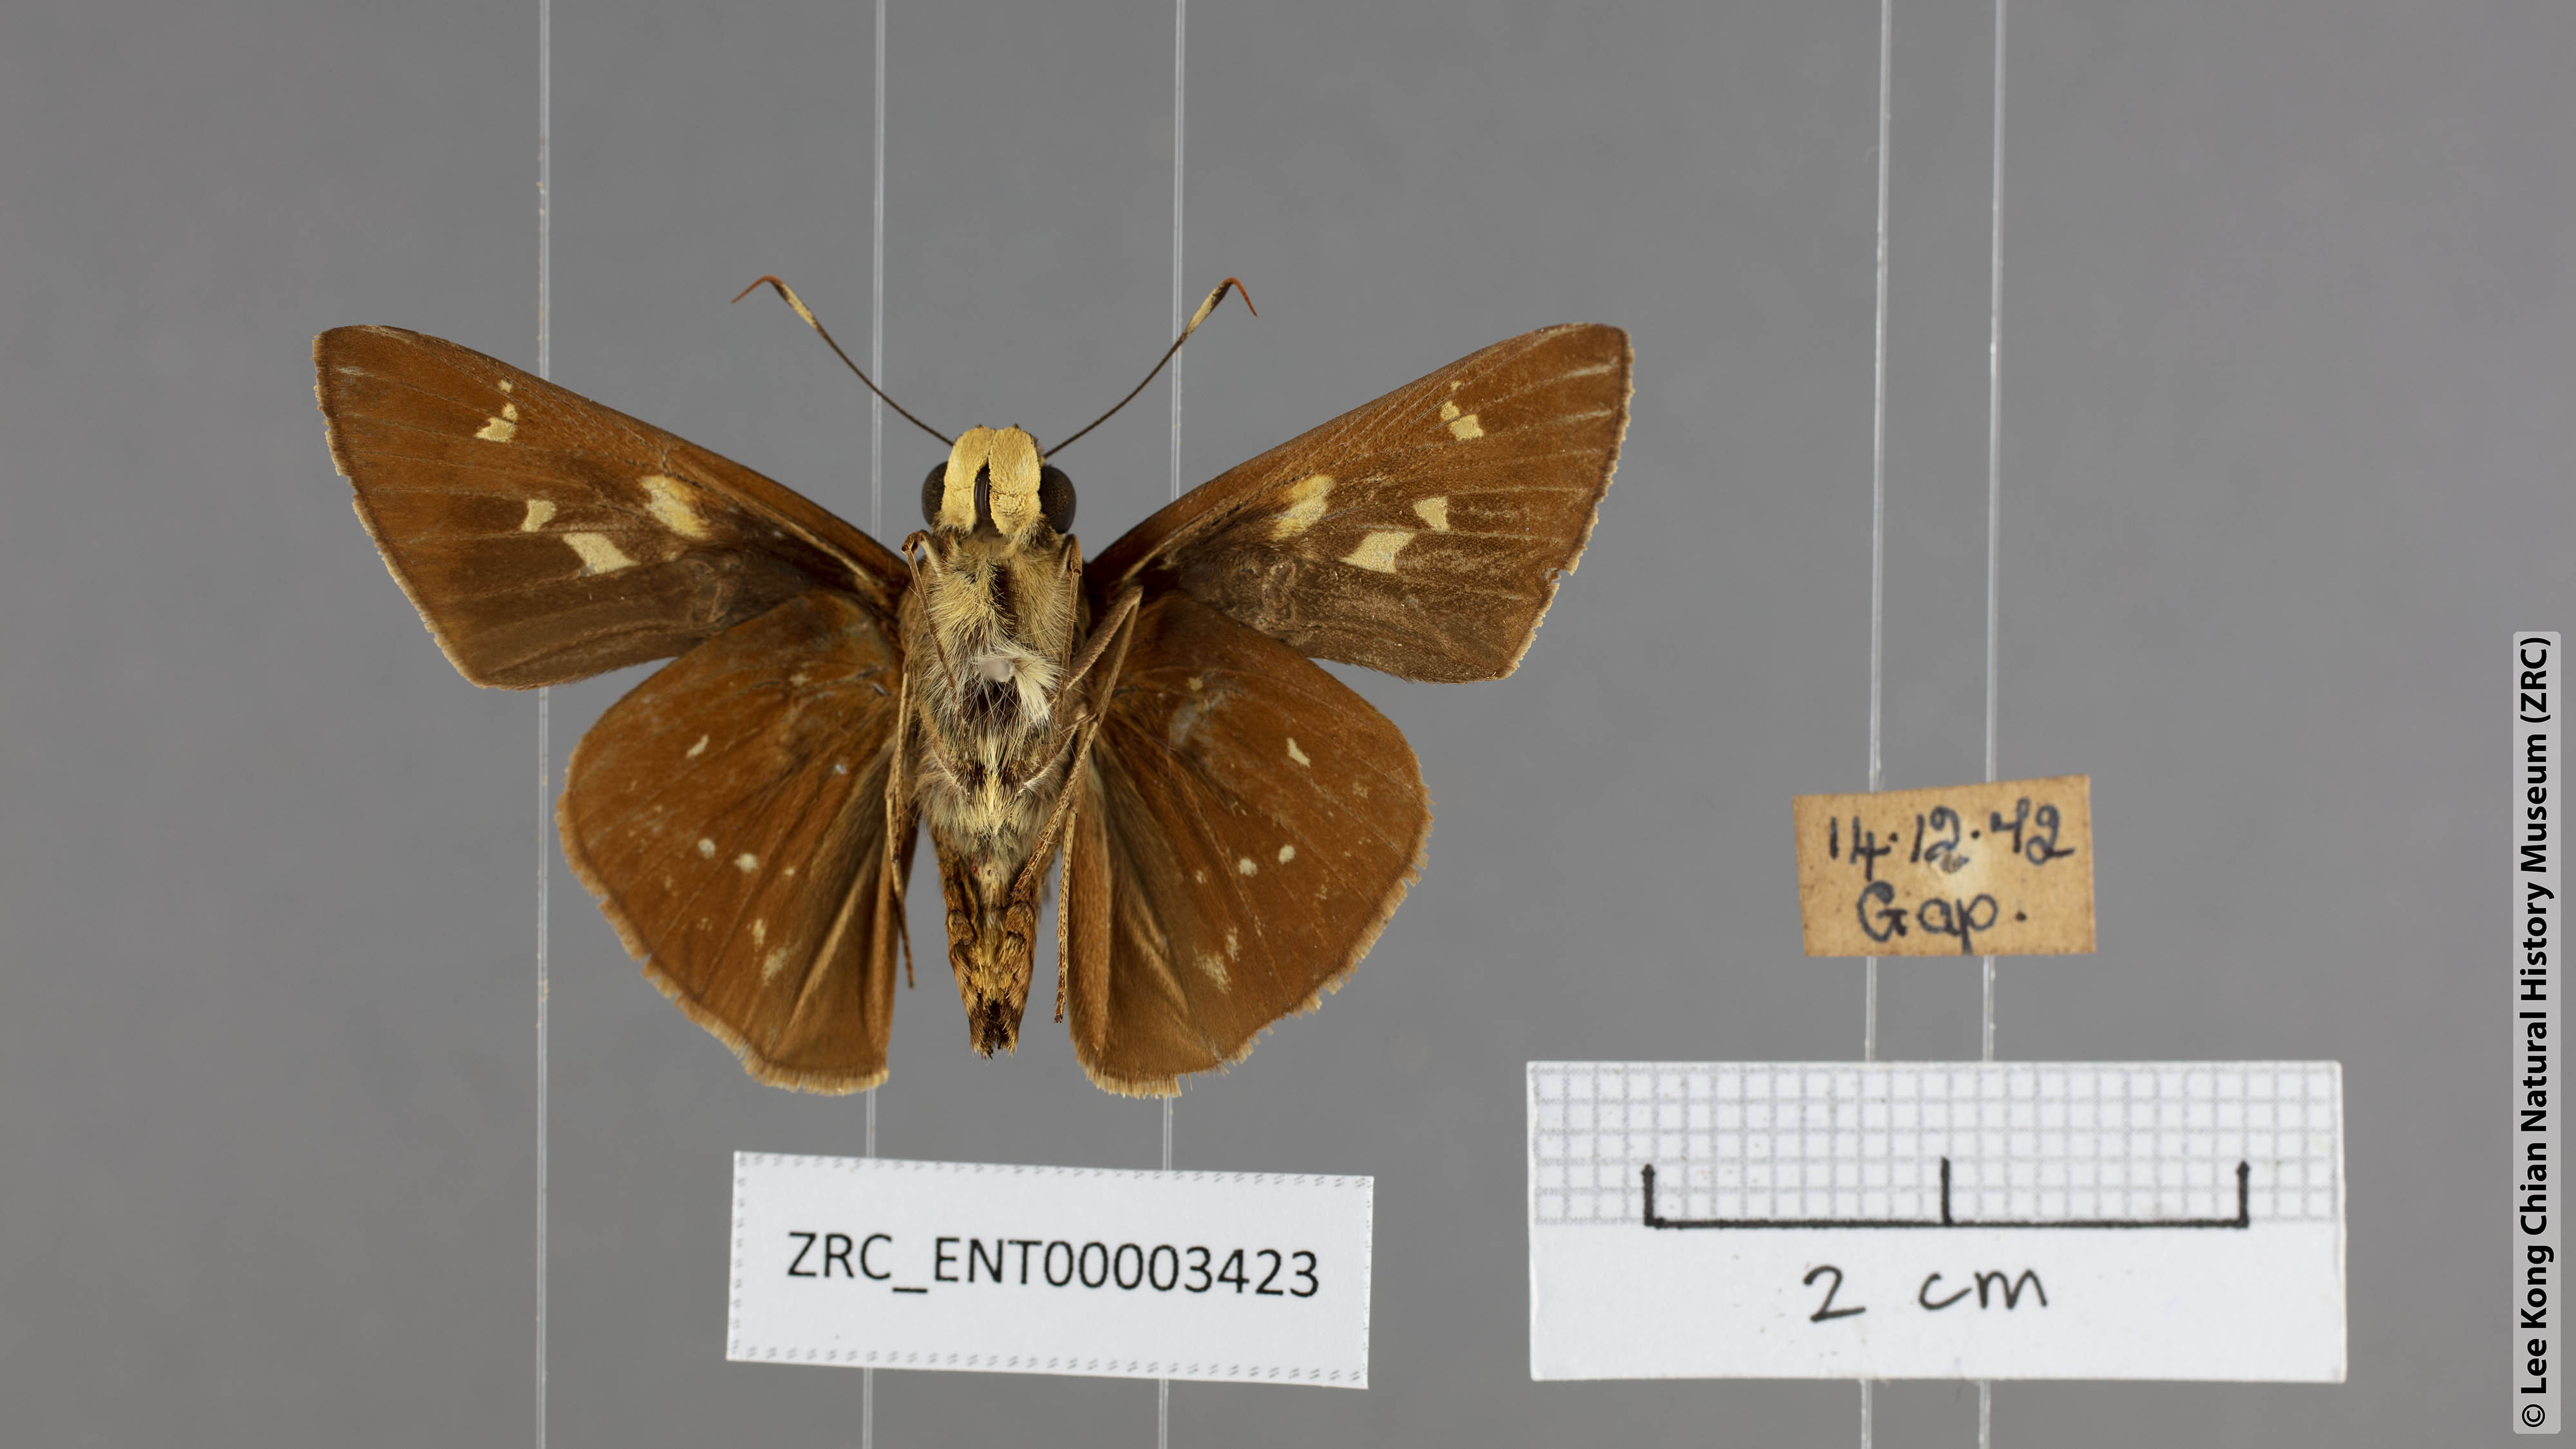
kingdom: Animalia
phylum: Arthropoda
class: Insecta
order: Lepidoptera
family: Hesperiidae
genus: Pithauria
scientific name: Pithauria marsena
